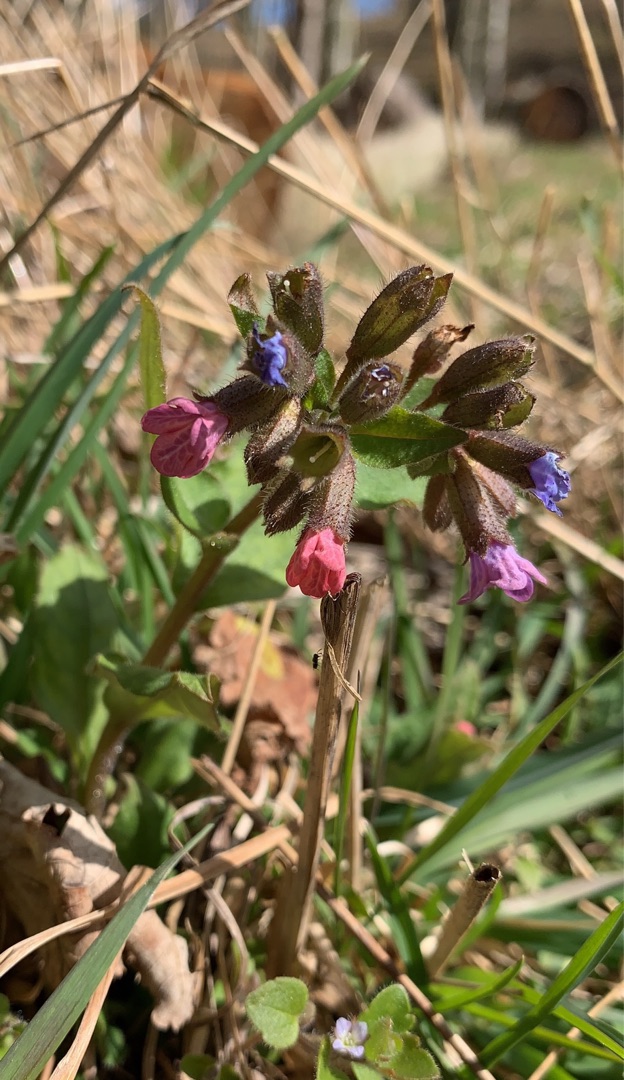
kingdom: Plantae
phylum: Tracheophyta
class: Magnoliopsida
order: Boraginales
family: Boraginaceae
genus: Pulmonaria
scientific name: Pulmonaria obscura
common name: Almindelig lungeurt
